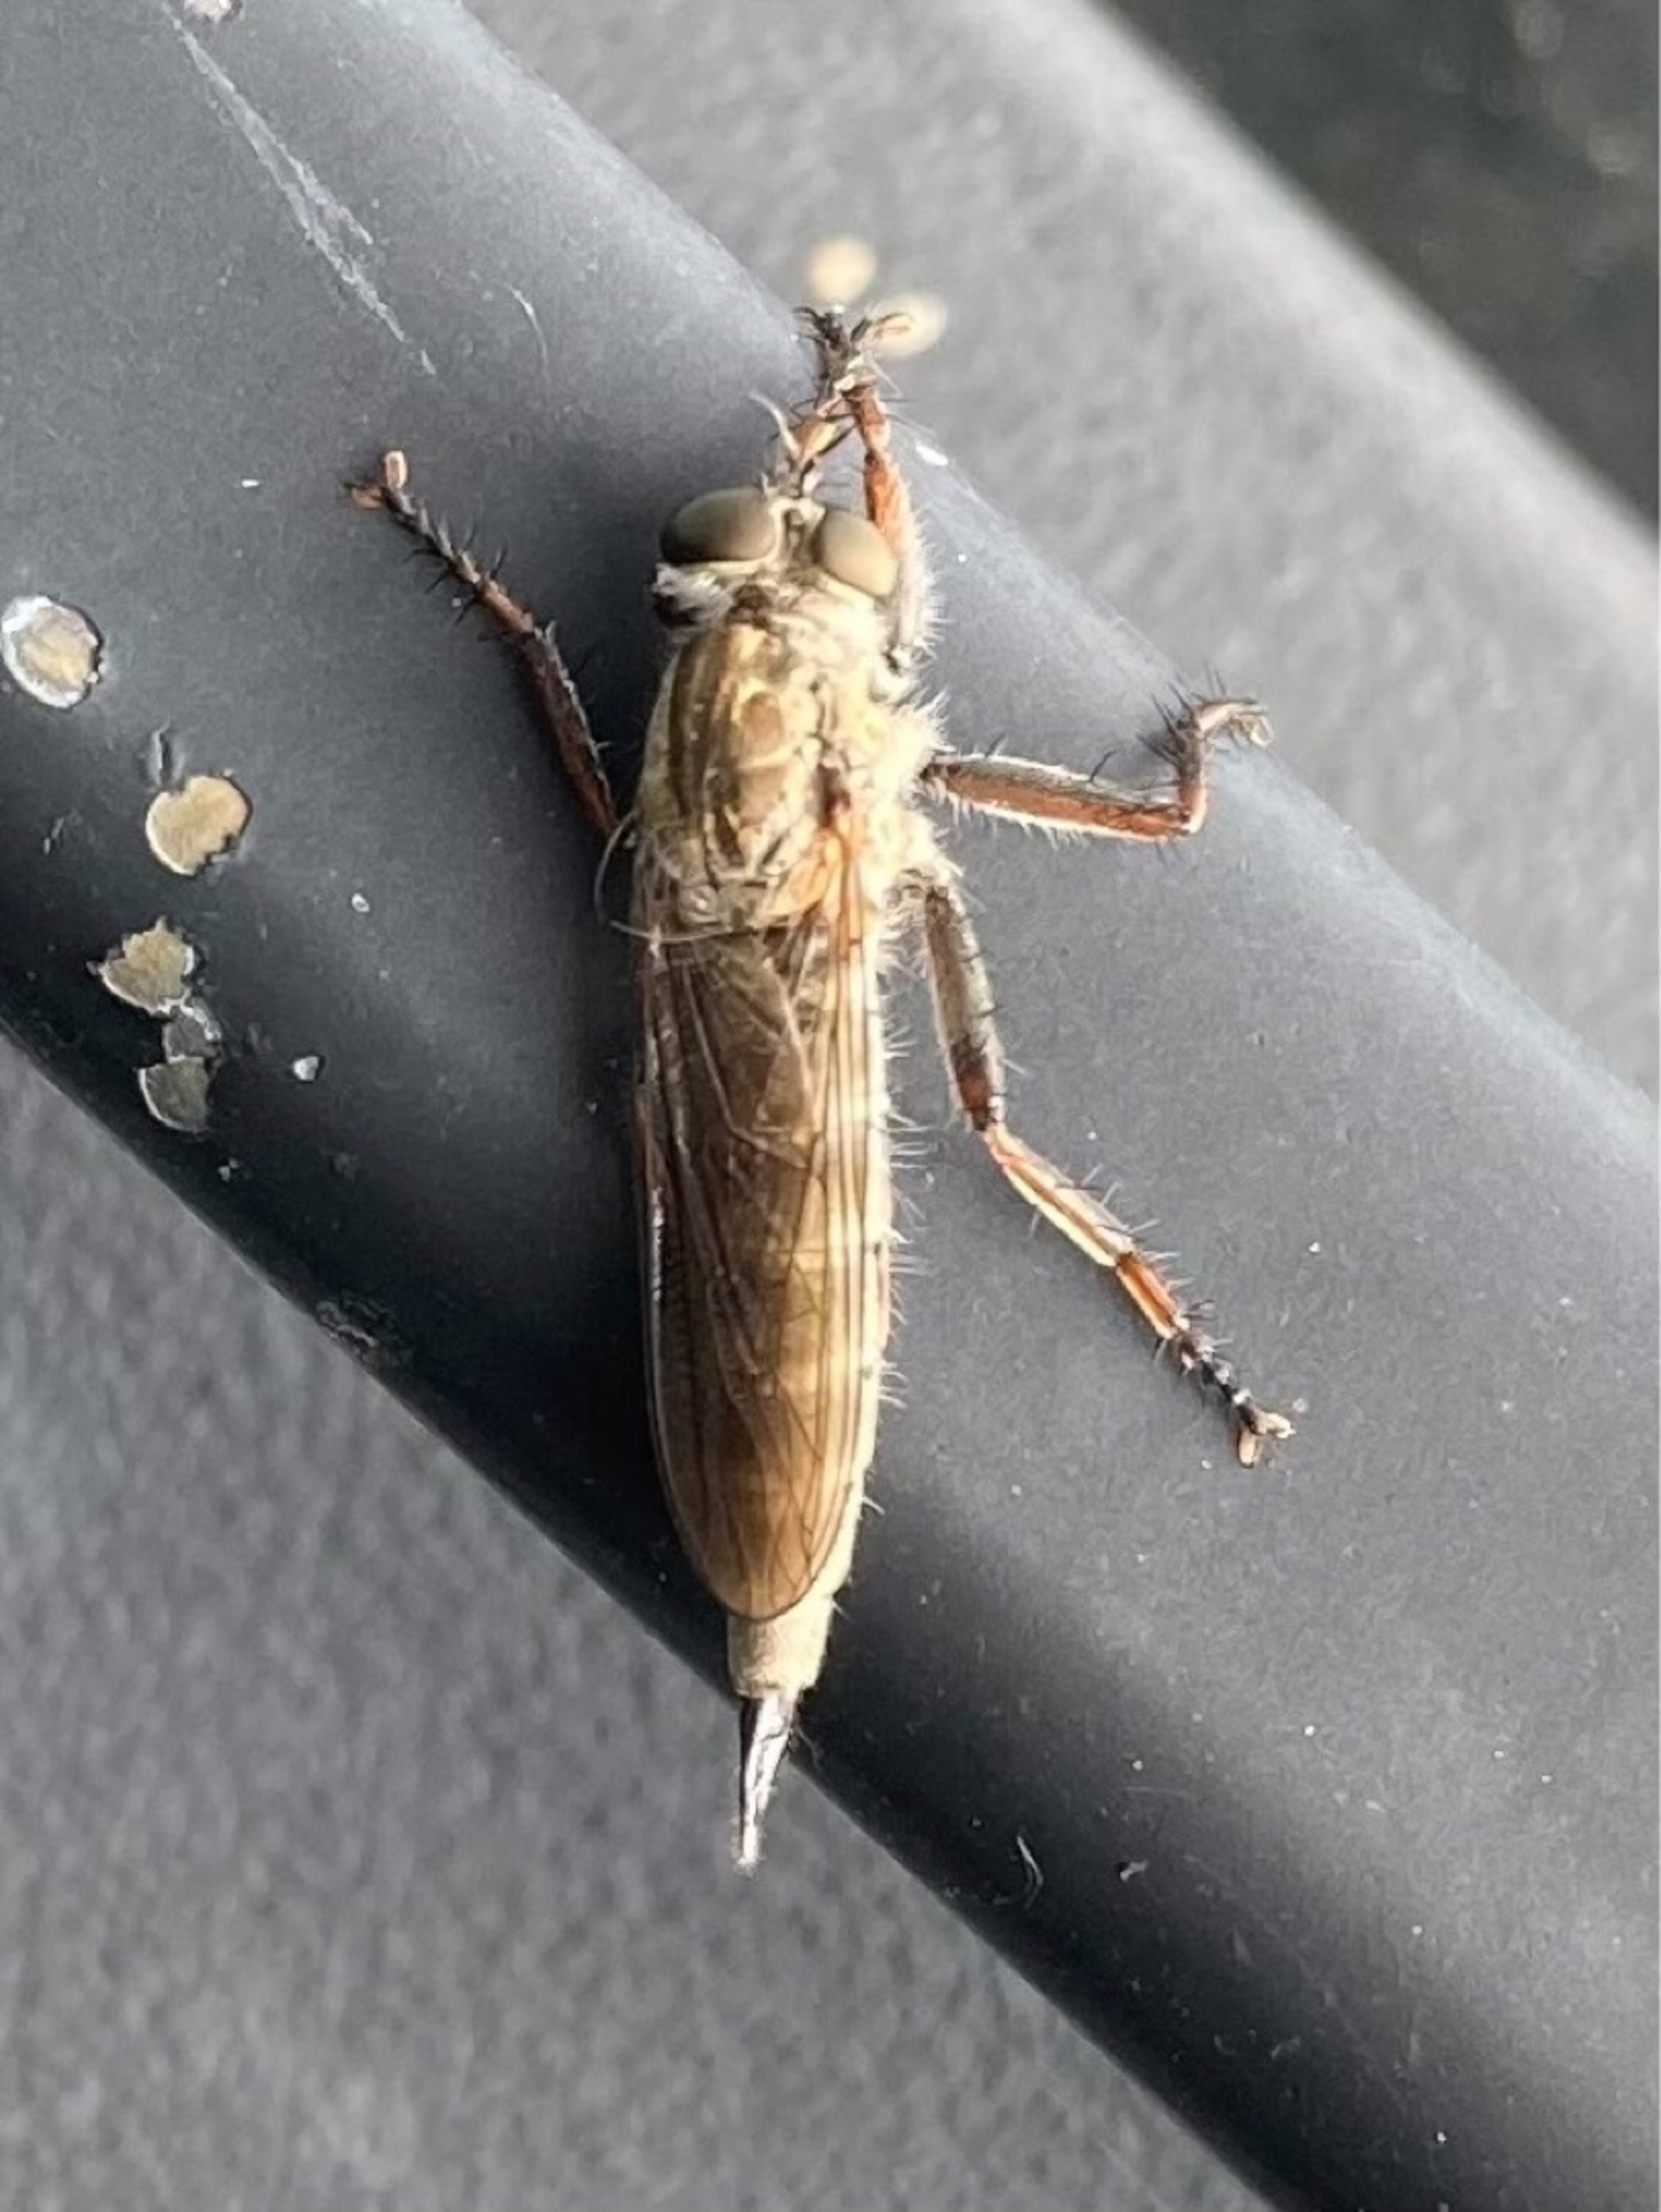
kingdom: Animalia
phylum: Arthropoda
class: Insecta
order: Diptera
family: Asilidae
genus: Machimus
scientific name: Machimus atricapillus
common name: Sort hårrovflue
